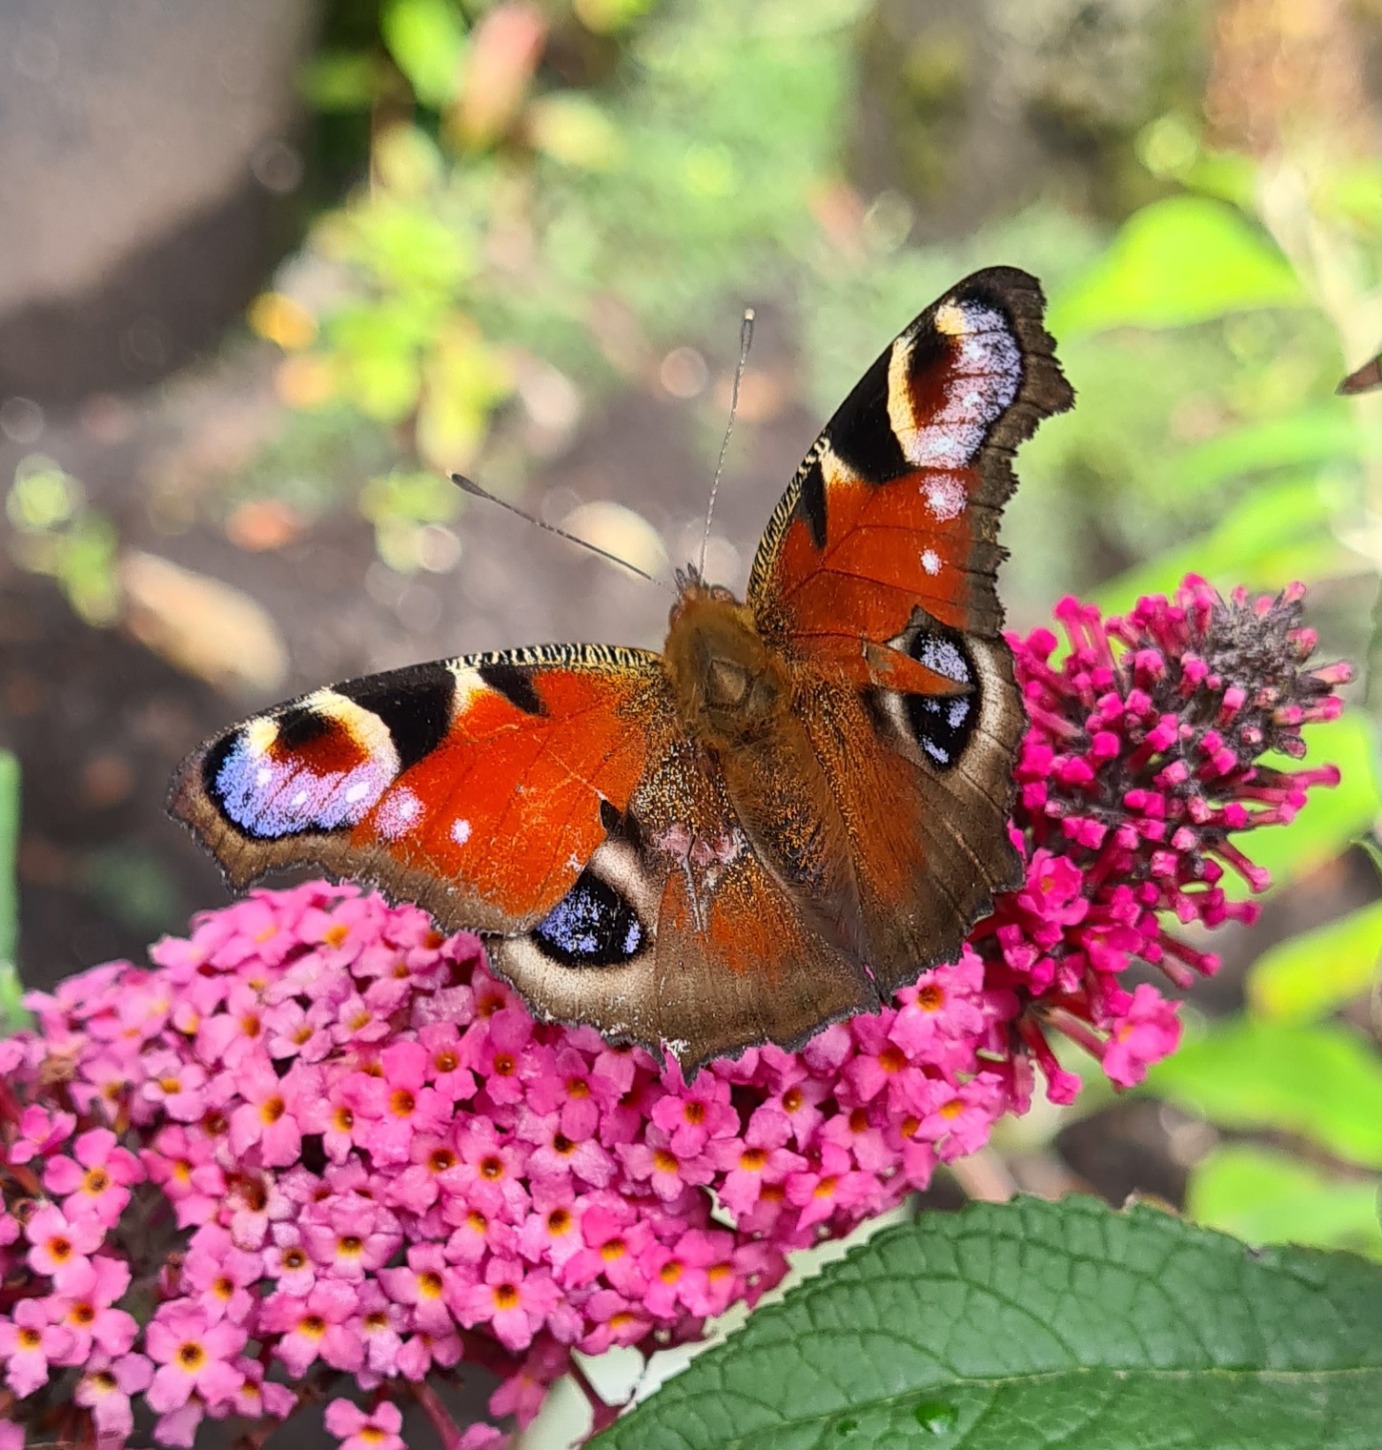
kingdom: Animalia
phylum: Arthropoda
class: Insecta
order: Lepidoptera
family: Nymphalidae
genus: Aglais
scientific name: Aglais io
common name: Dagpåfugleøje
